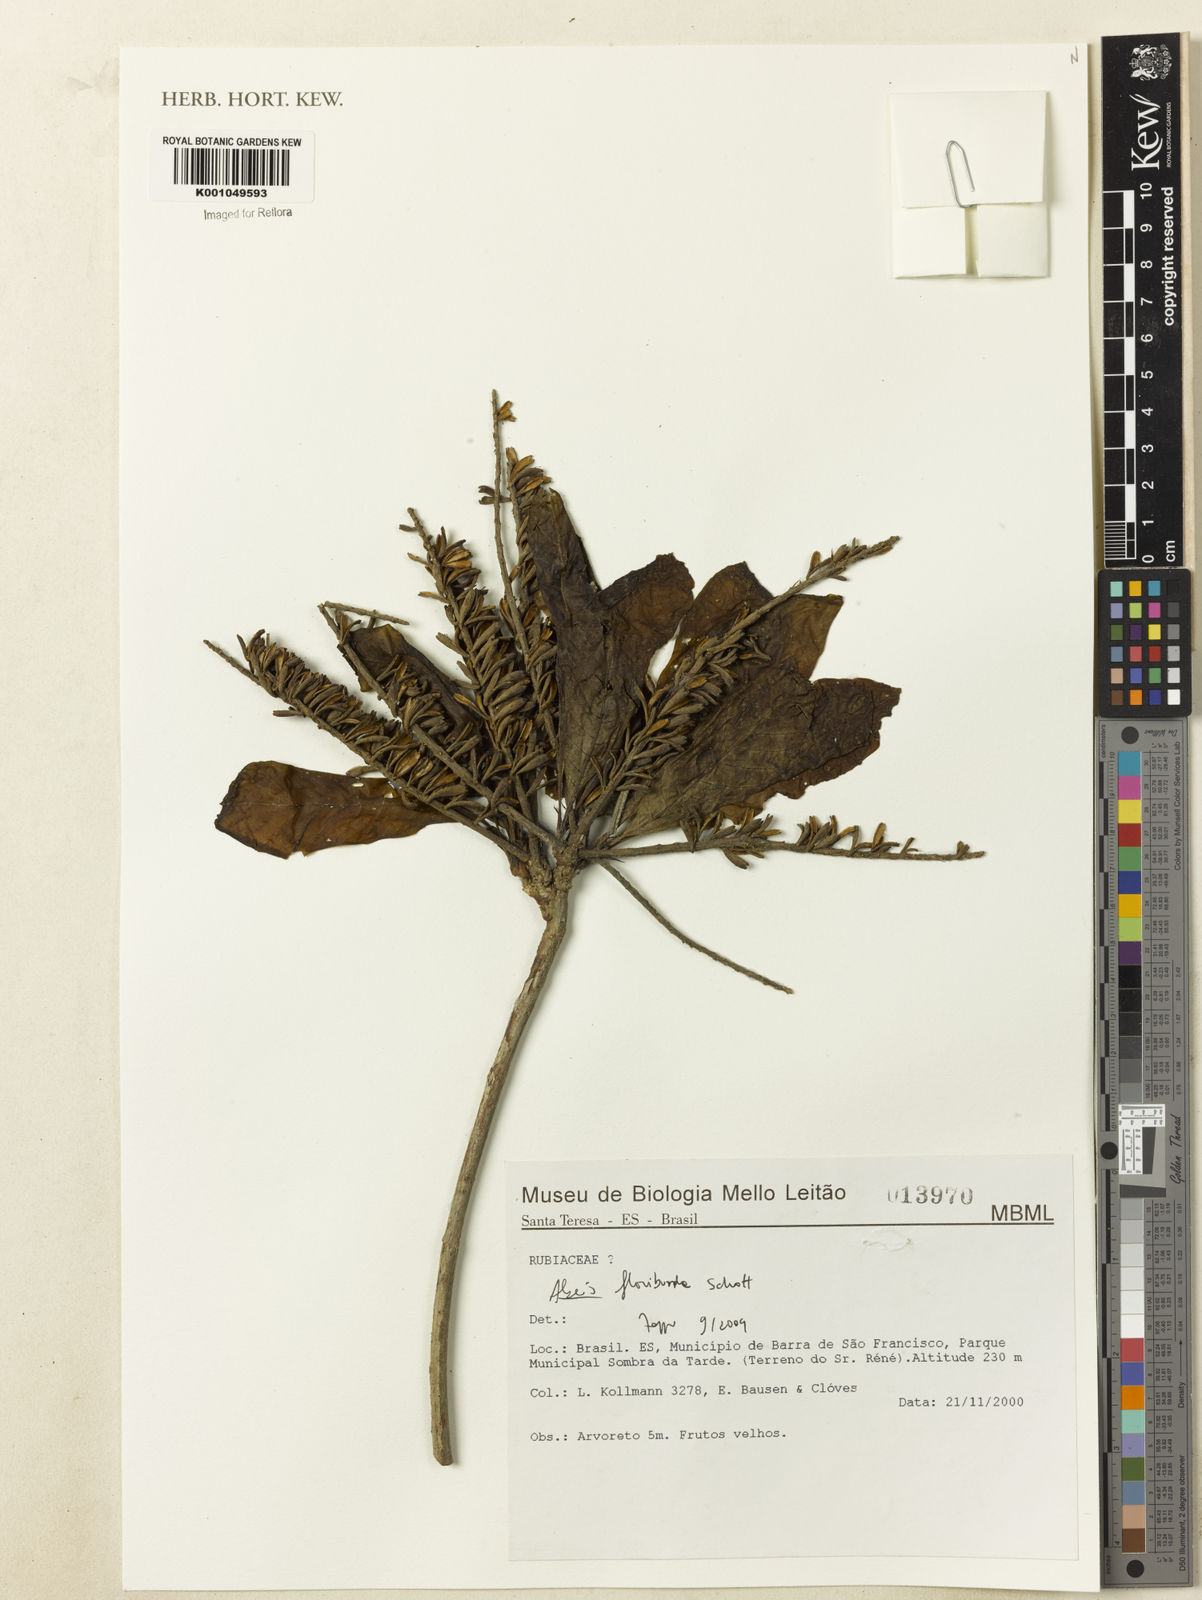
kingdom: Plantae
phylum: Tracheophyta
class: Magnoliopsida
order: Gentianales
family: Rubiaceae
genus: Alseis
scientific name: Alseis floribunda
